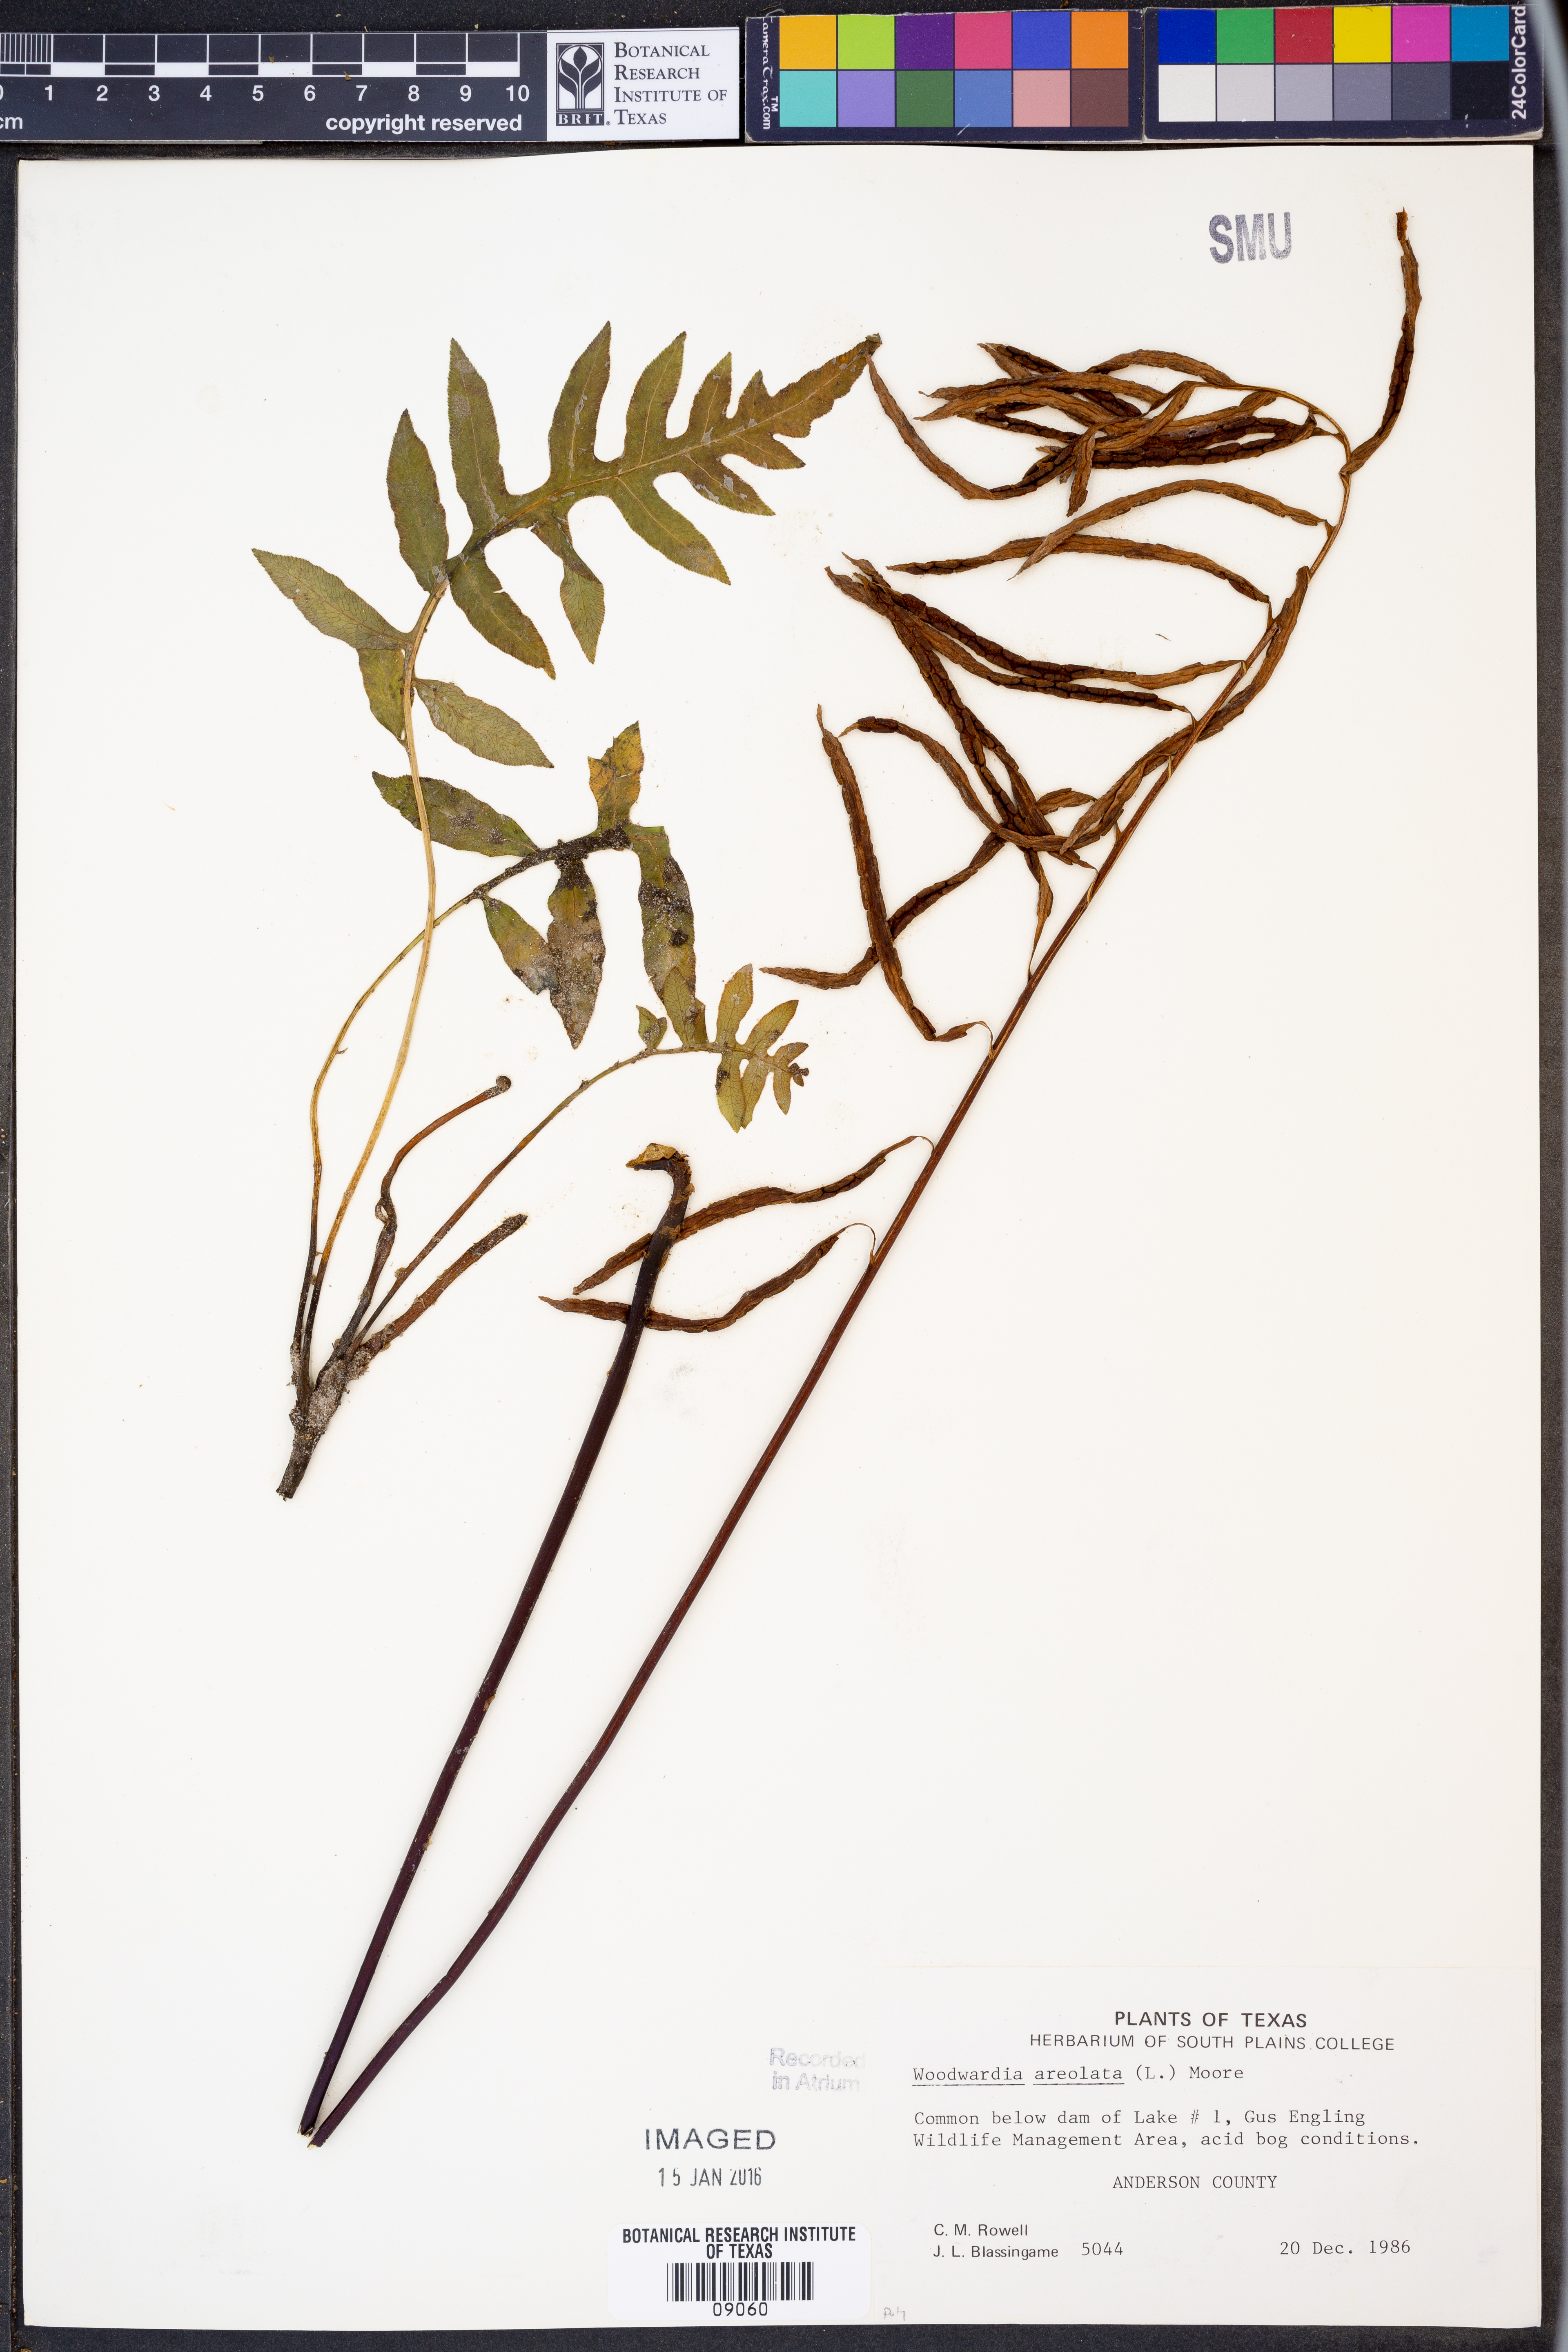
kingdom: Plantae
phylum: Tracheophyta
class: Polypodiopsida
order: Polypodiales
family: Blechnaceae
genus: Lorinseria
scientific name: Lorinseria areolata
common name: Dwarf chain fern
